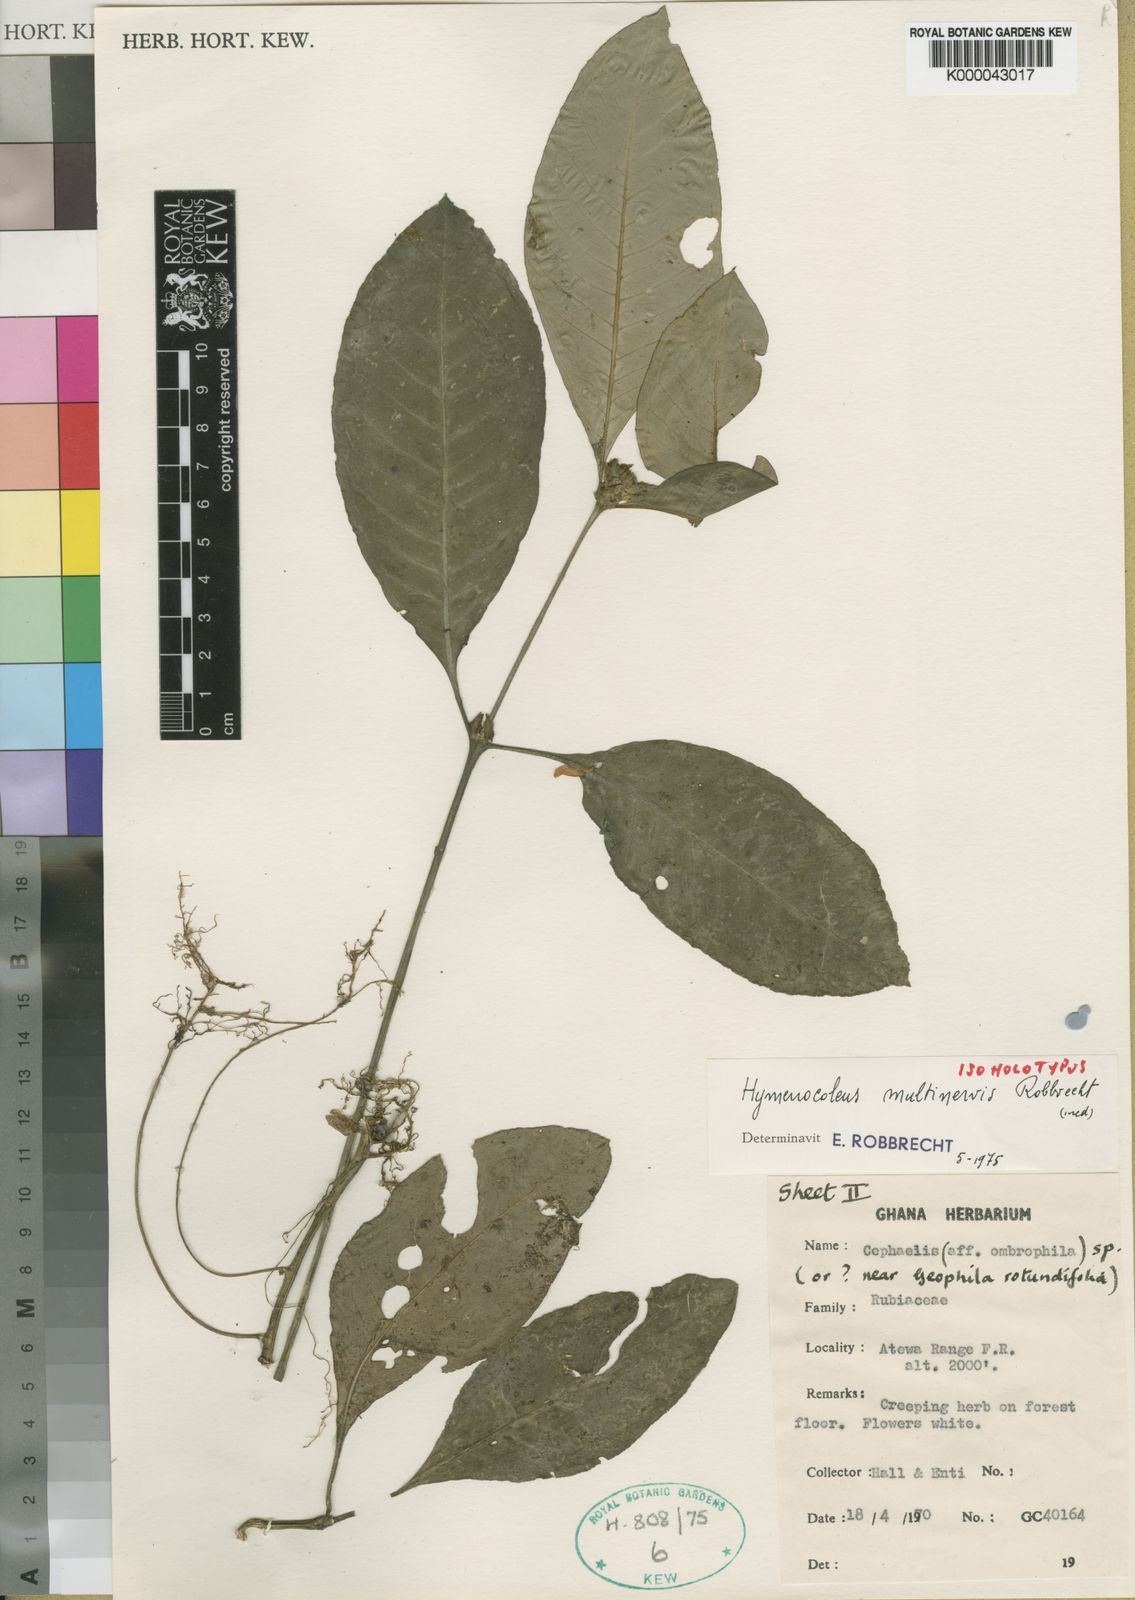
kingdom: Plantae
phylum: Tracheophyta
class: Magnoliopsida
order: Gentianales
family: Rubiaceae
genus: Hymenocoleus
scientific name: Hymenocoleus multinervis
